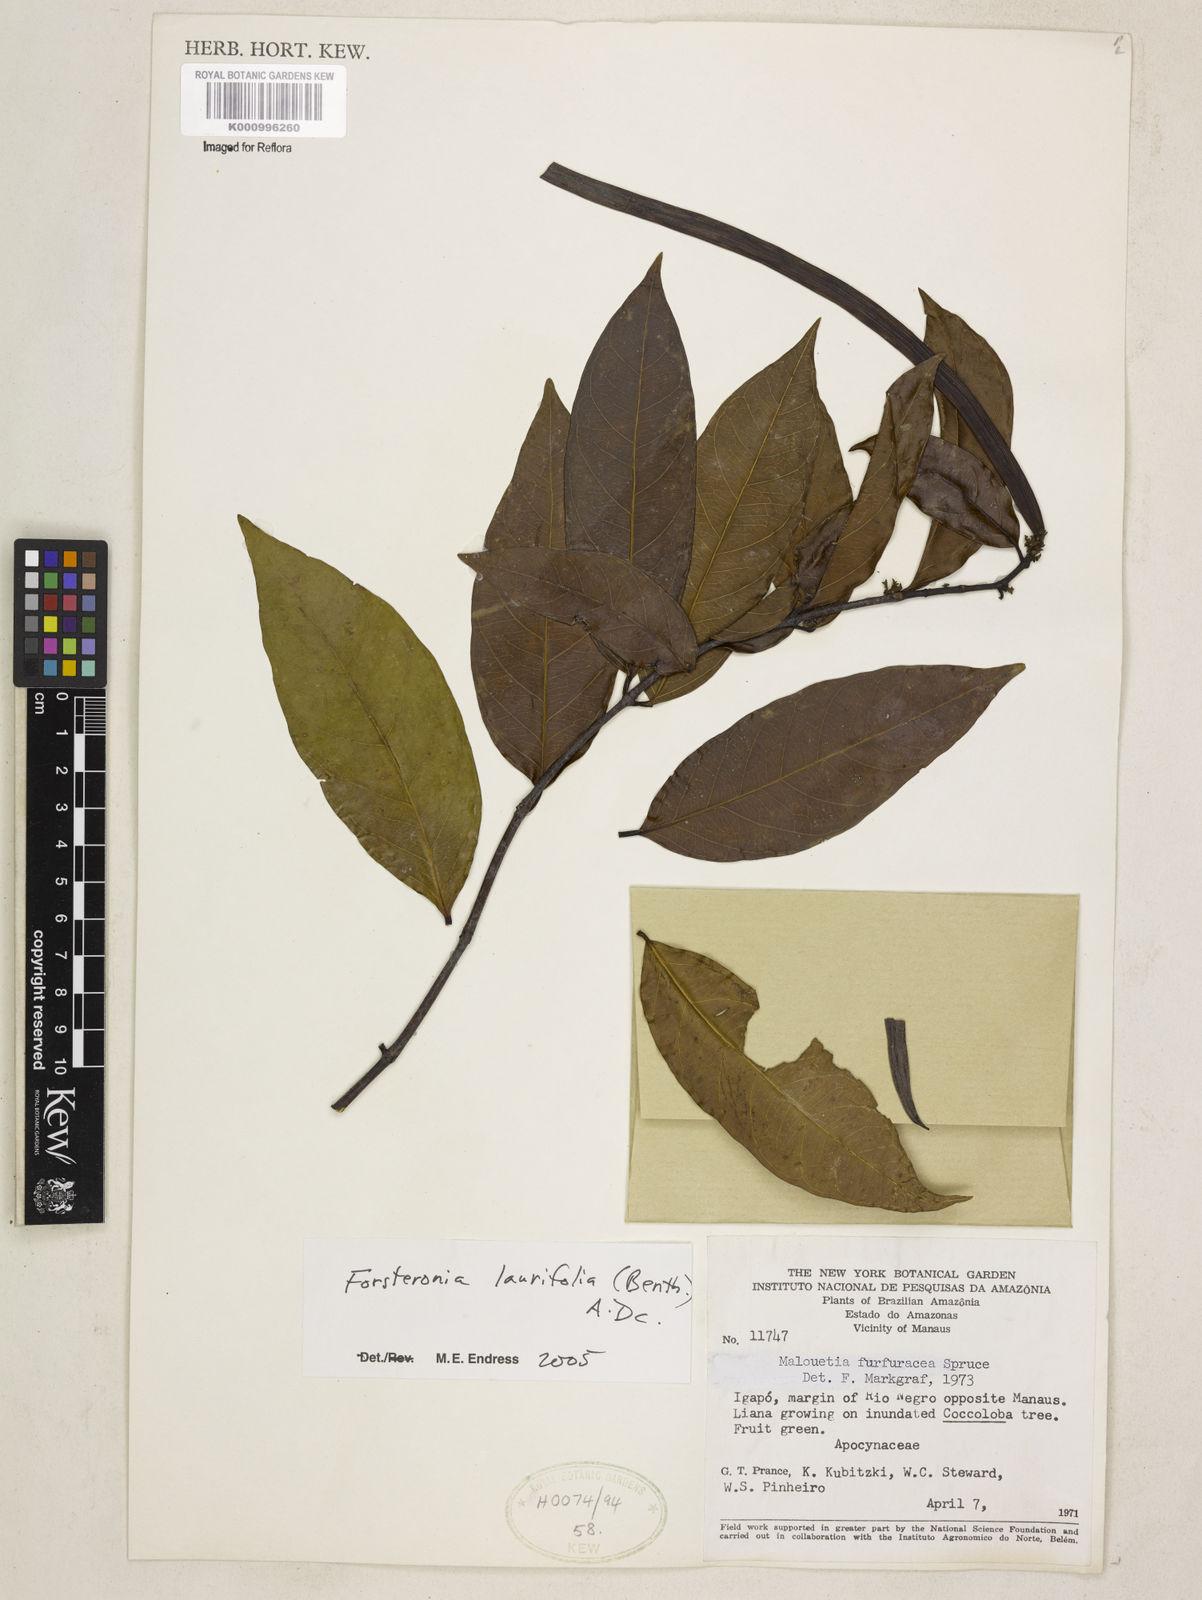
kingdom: Plantae
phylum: Tracheophyta
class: Magnoliopsida
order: Gentianales
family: Apocynaceae
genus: Forsteronia
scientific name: Forsteronia laurifolia
